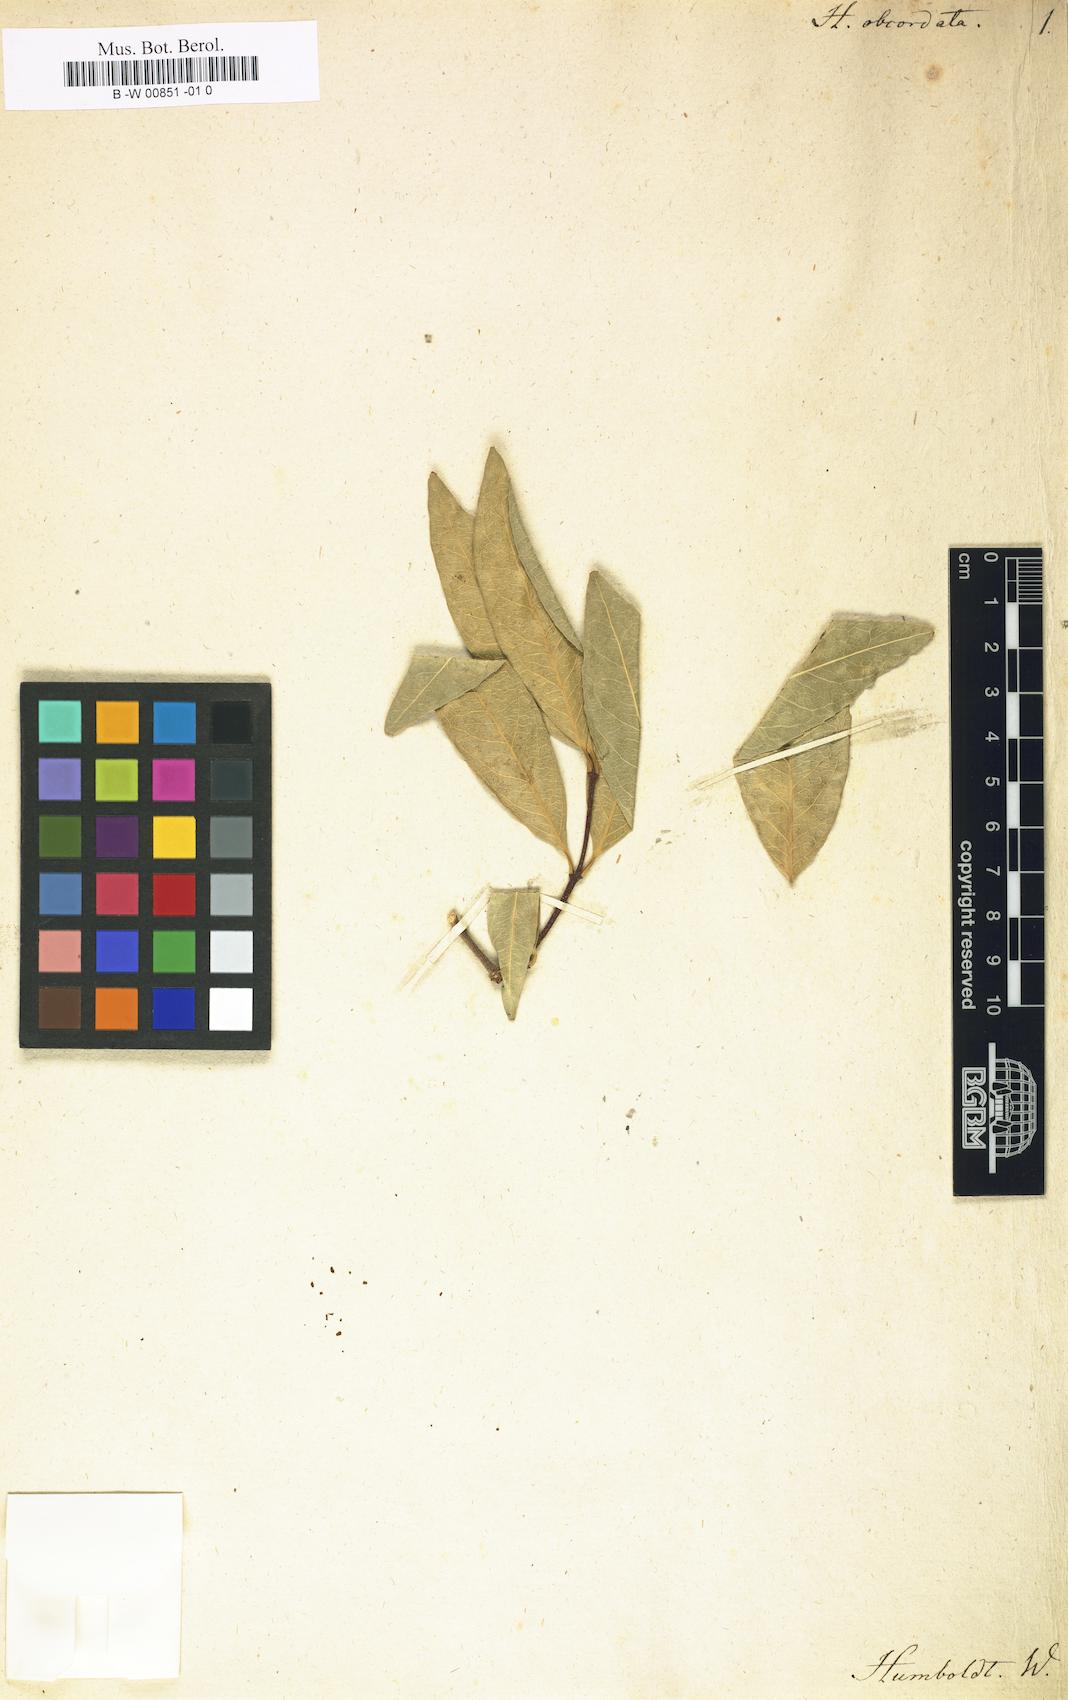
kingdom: Plantae
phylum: Tracheophyta
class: Magnoliopsida
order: Celastrales
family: Celastraceae
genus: Hippocratea
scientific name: Hippocratea volubilis
